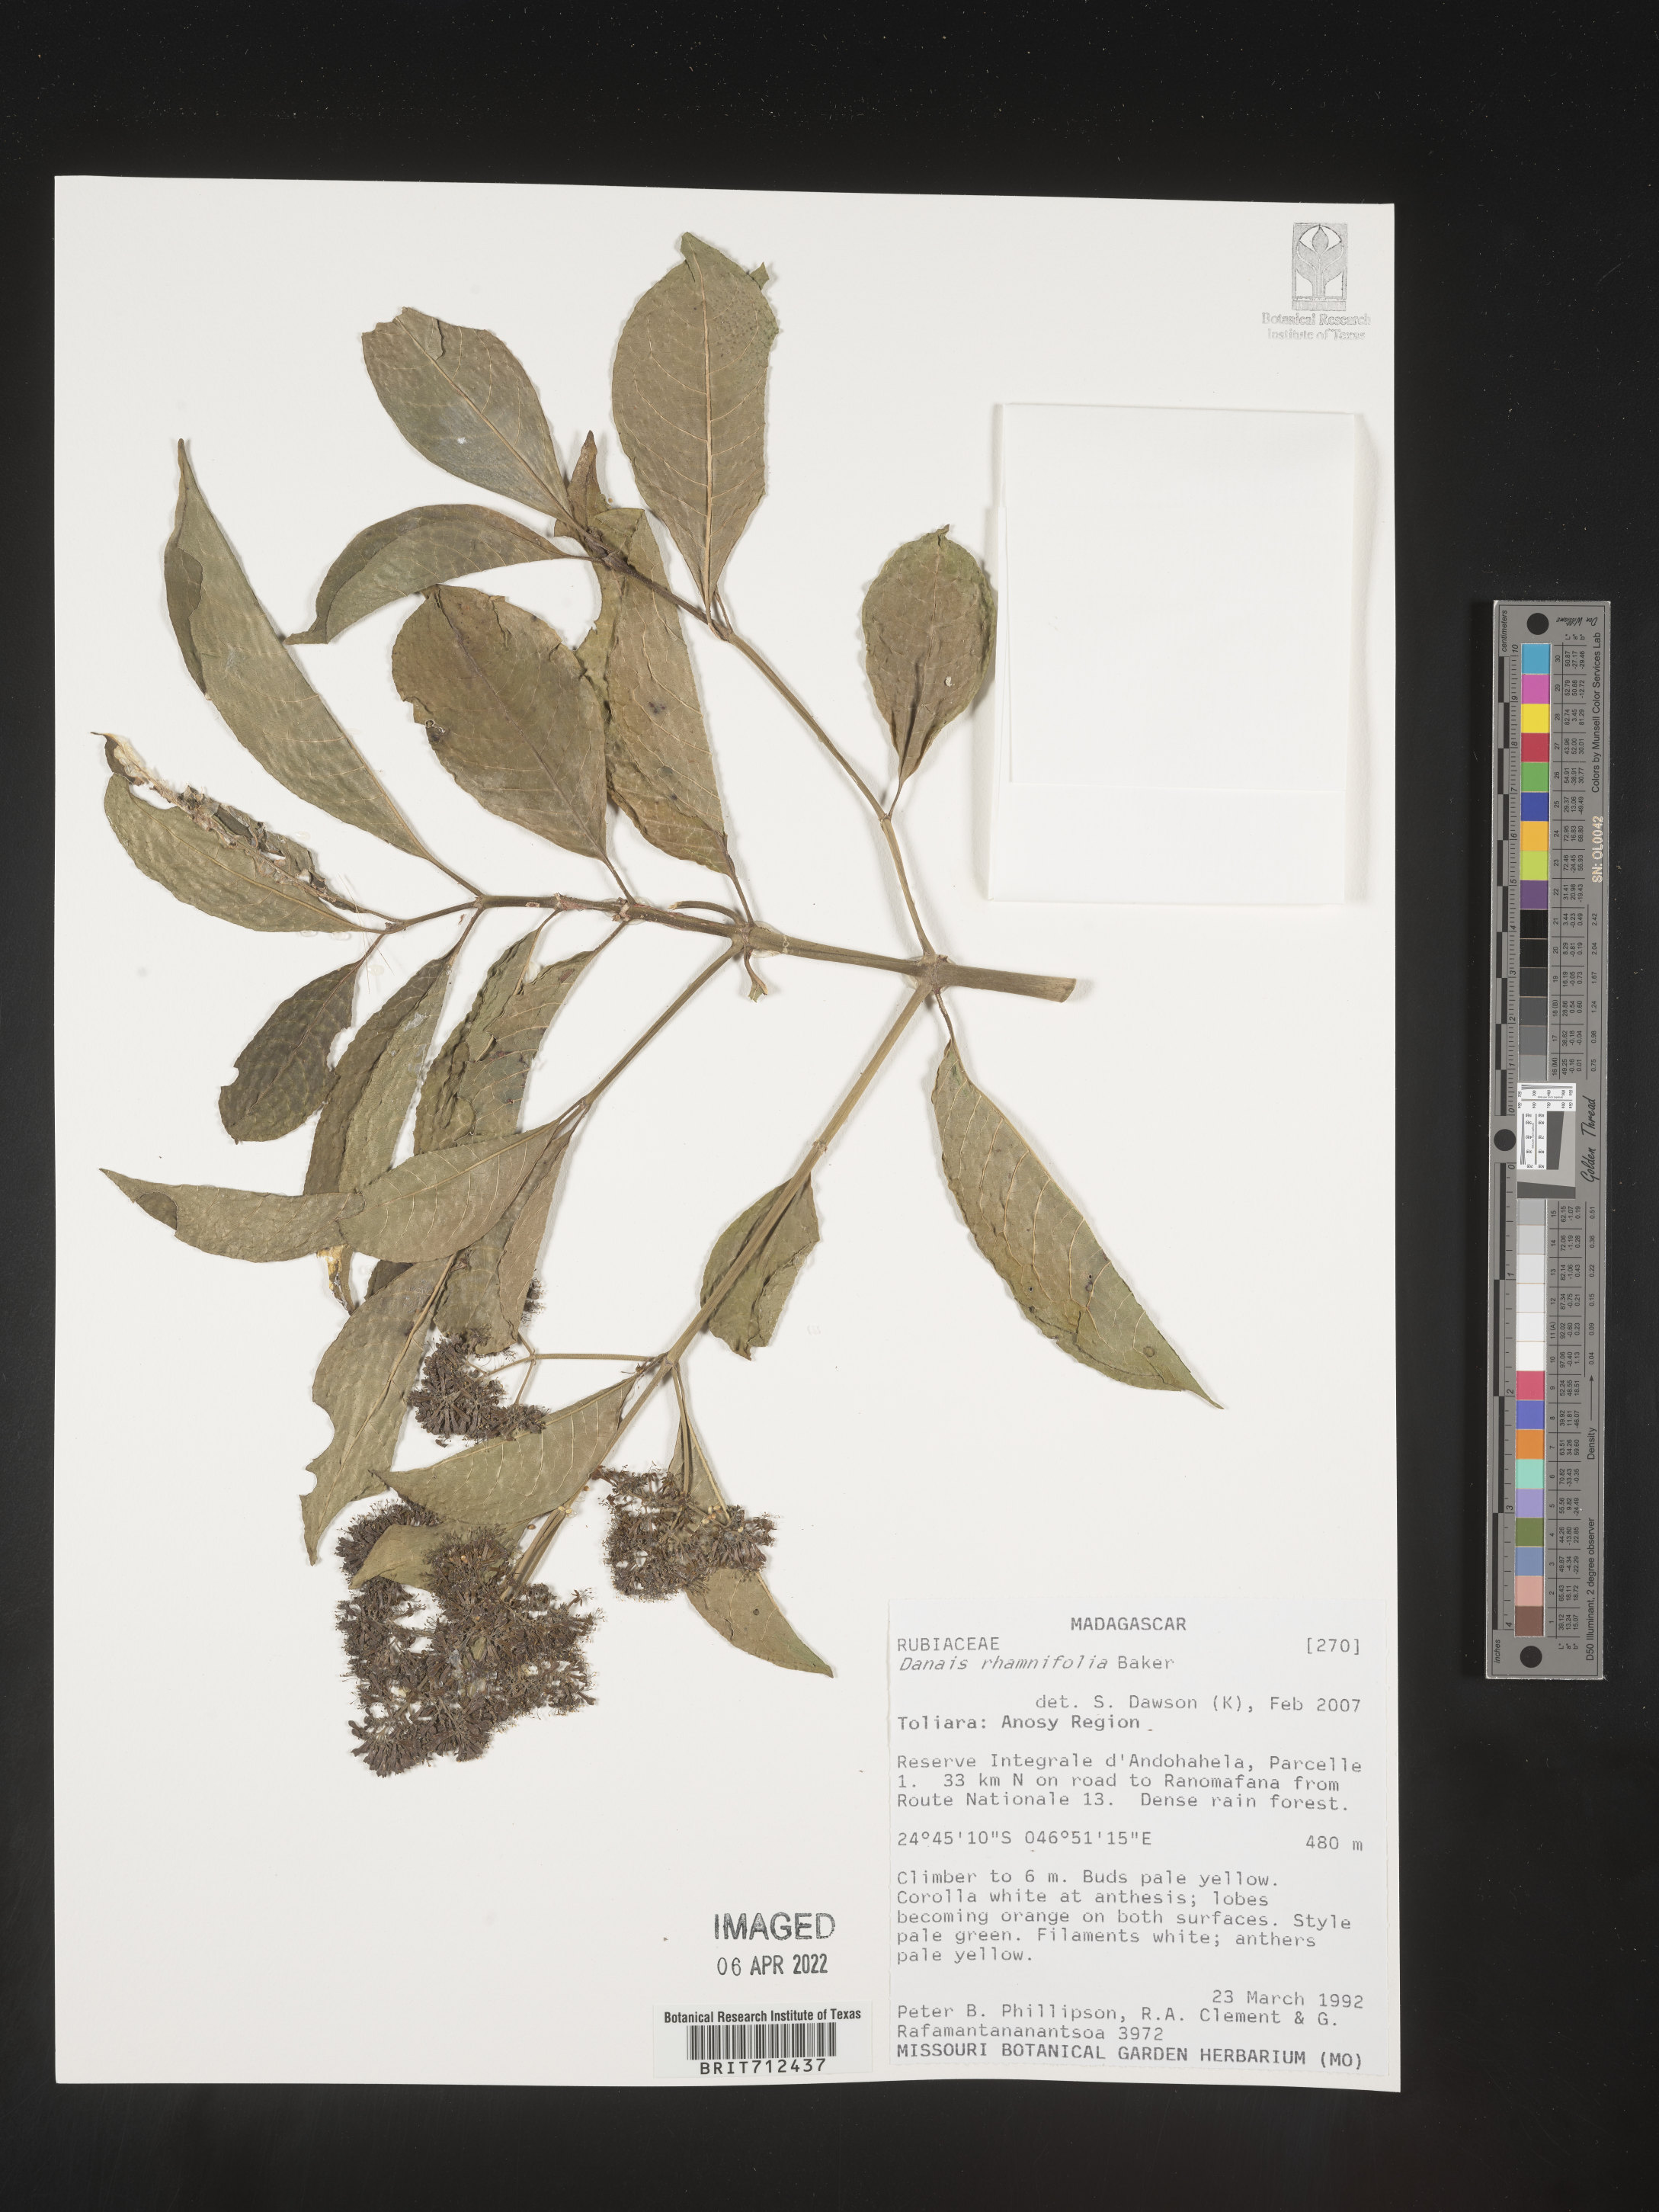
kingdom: Plantae
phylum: Tracheophyta
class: Magnoliopsida
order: Gentianales
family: Rubiaceae
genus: Danais
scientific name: Danais
